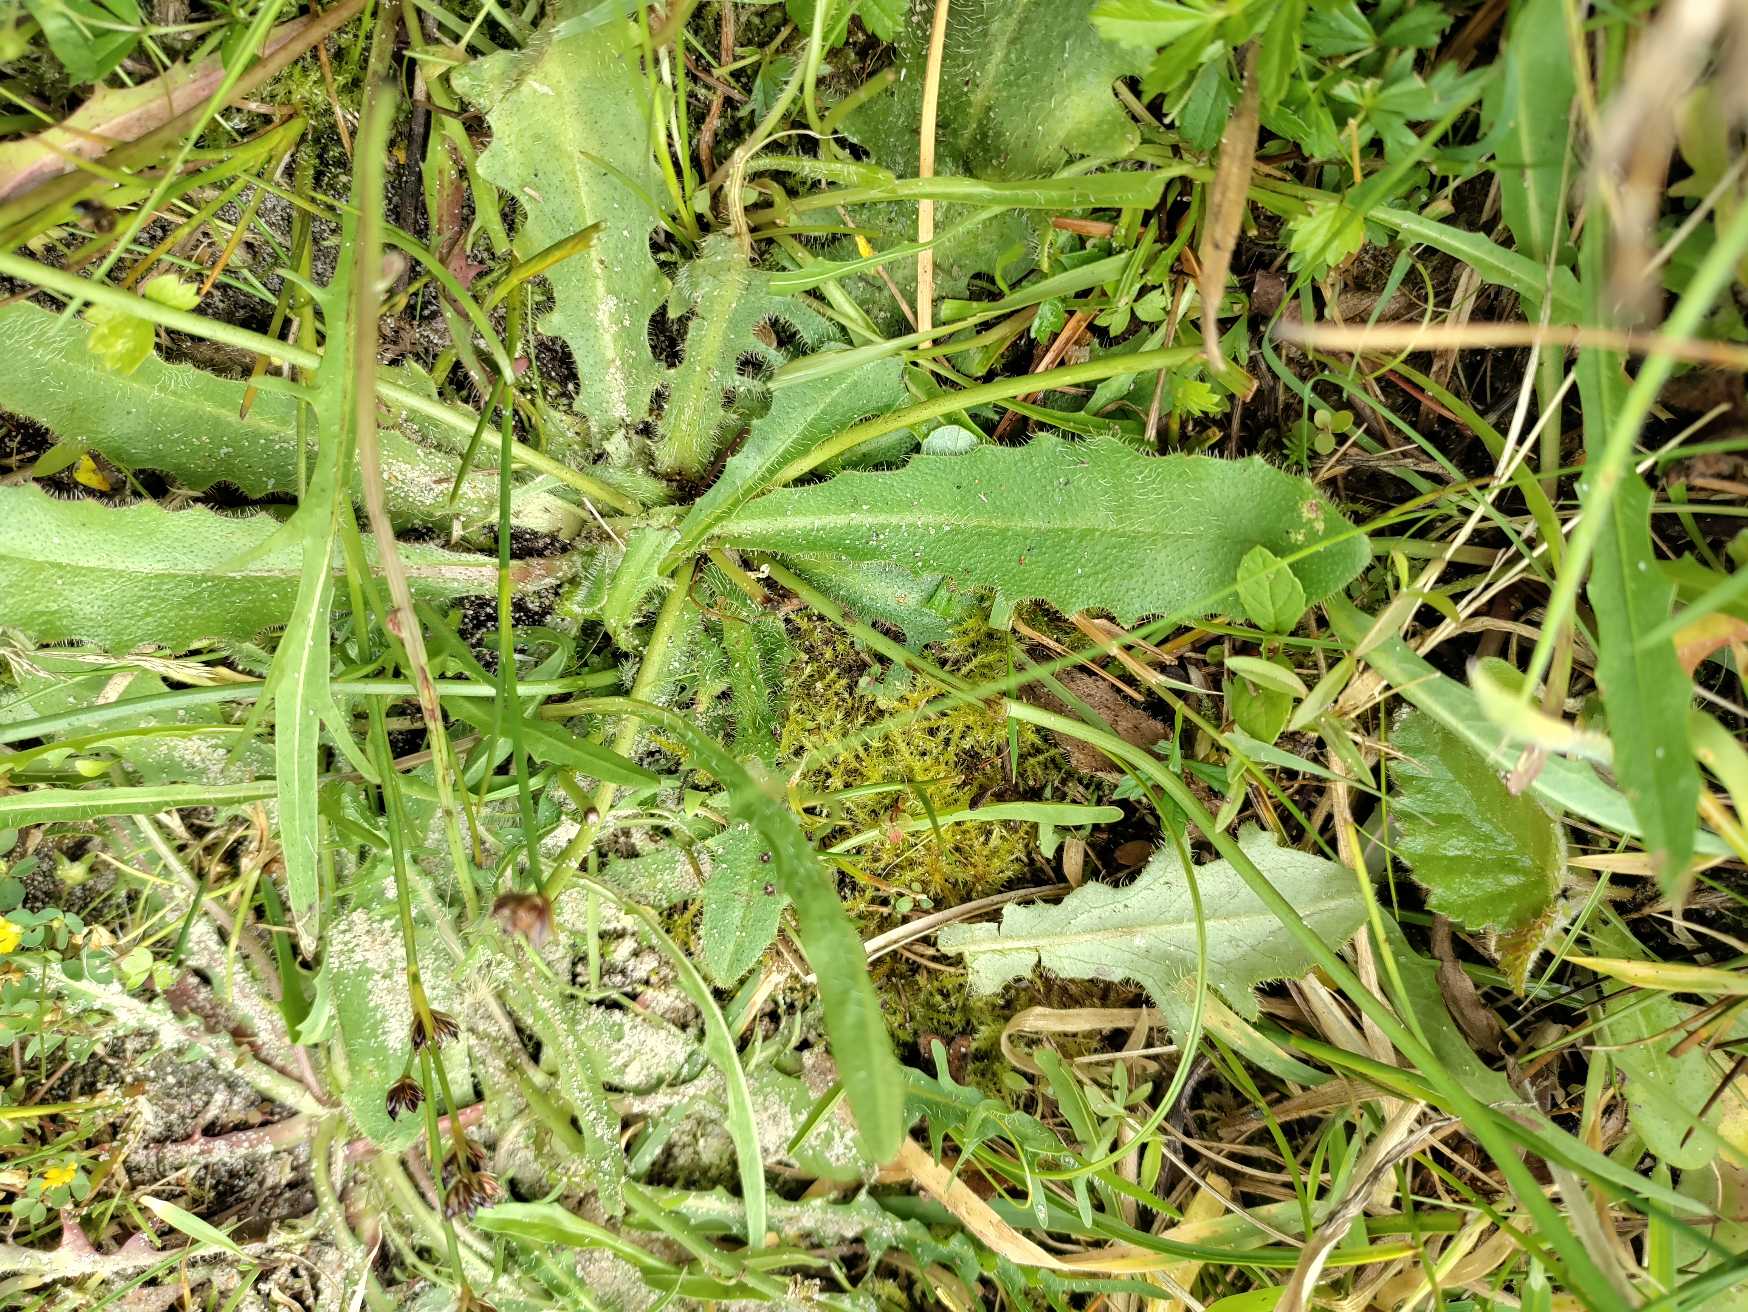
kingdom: Plantae
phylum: Tracheophyta
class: Magnoliopsida
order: Asterales
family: Asteraceae
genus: Hypochaeris
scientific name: Hypochaeris radicata
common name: Almindelig kongepen
